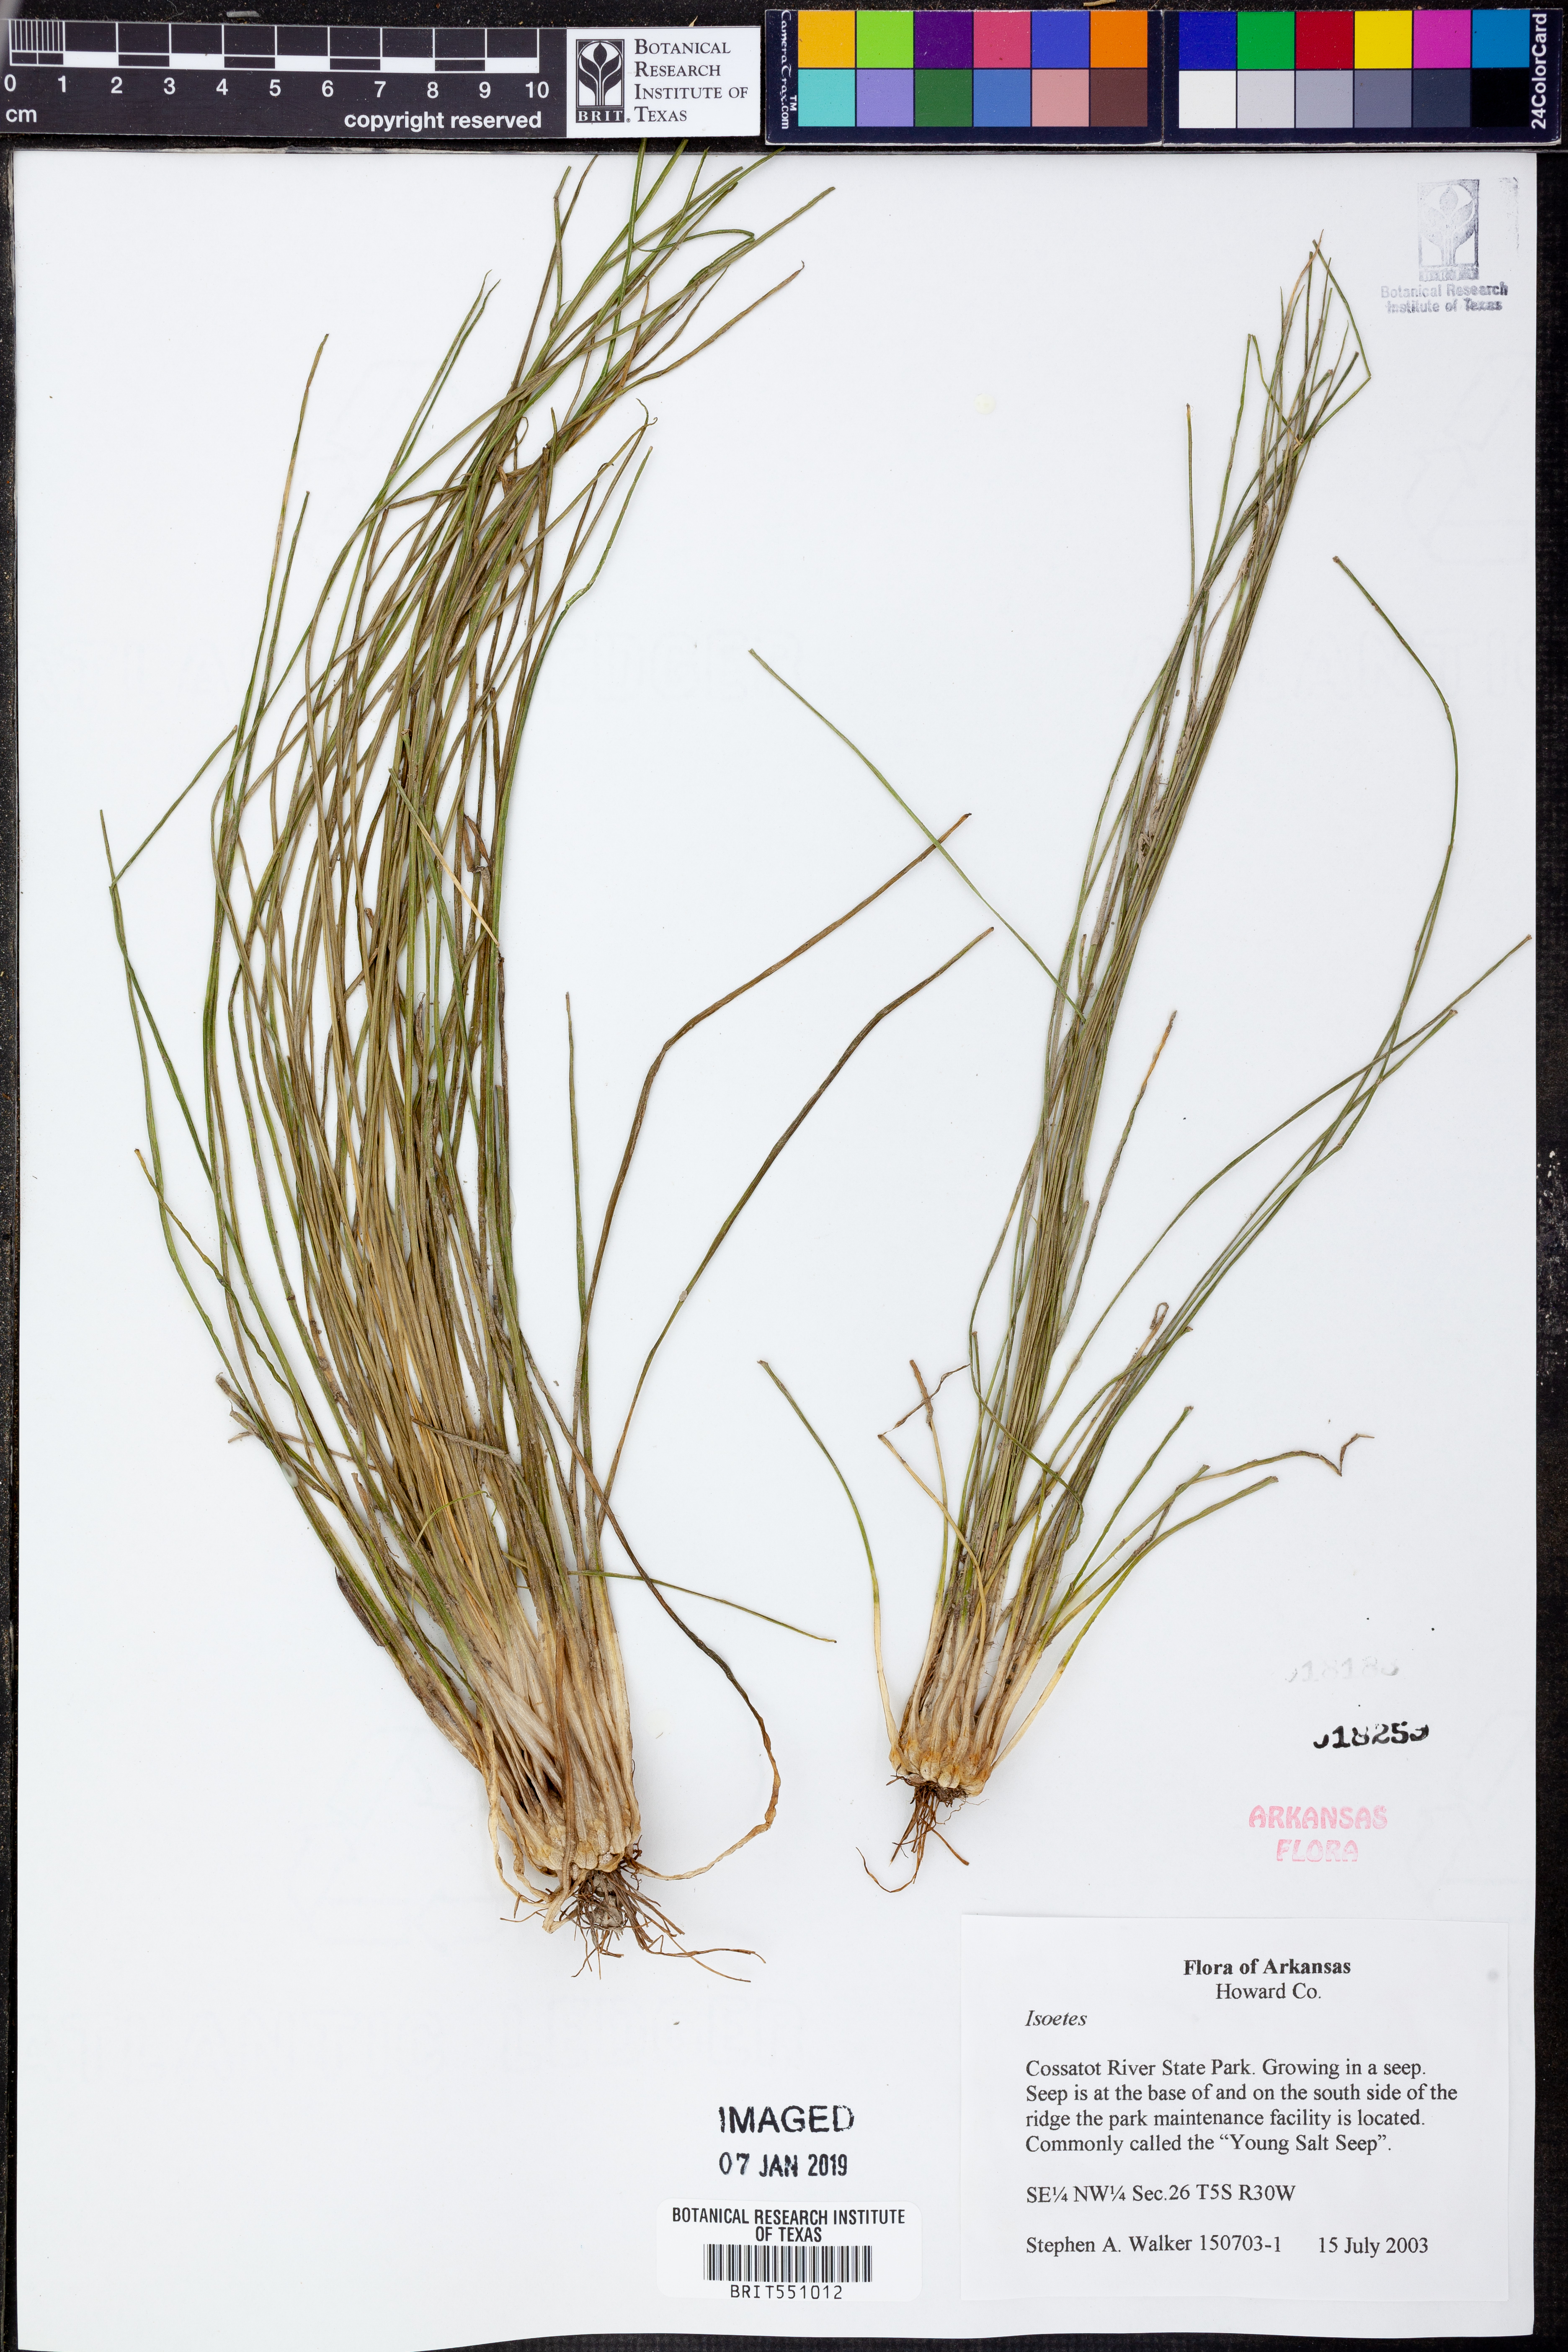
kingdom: Plantae
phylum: Tracheophyta
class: Lycopodiopsida
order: Isoetales
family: Isoetaceae
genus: Isoetes
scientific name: Isoetes
